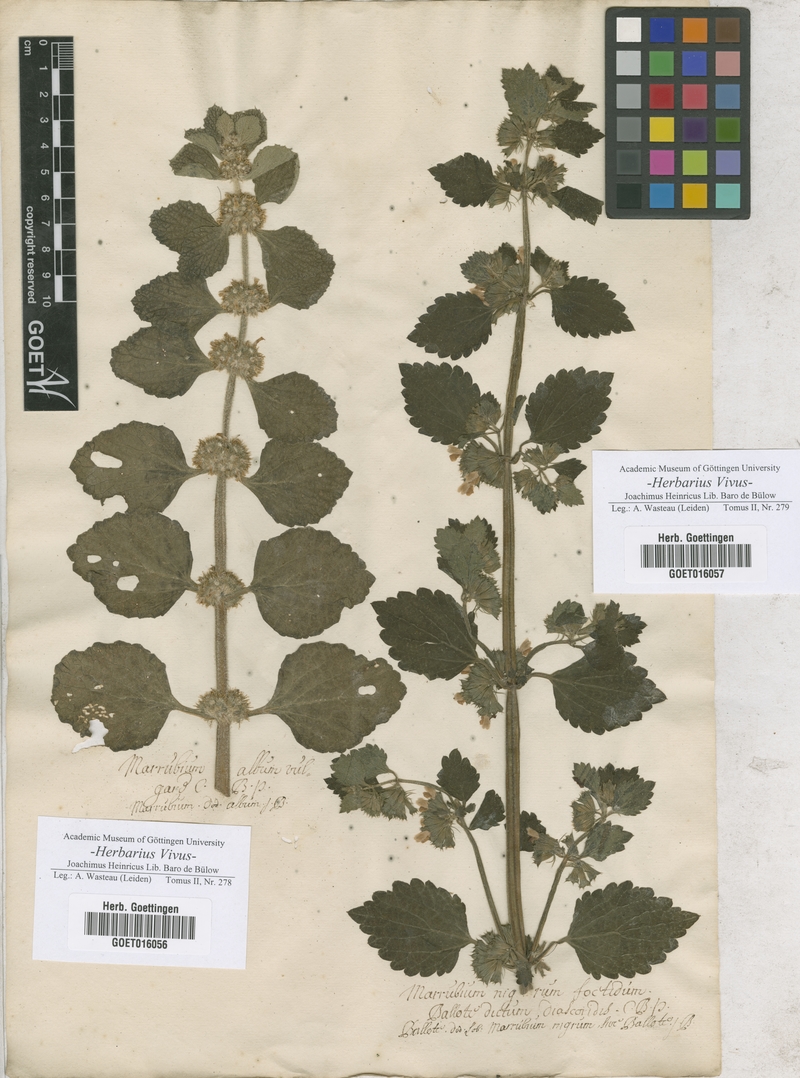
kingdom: Plantae
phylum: Tracheophyta
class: Magnoliopsida
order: Lamiales
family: Lamiaceae
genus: Marrubium
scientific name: Marrubium vulgare
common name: Horehound
